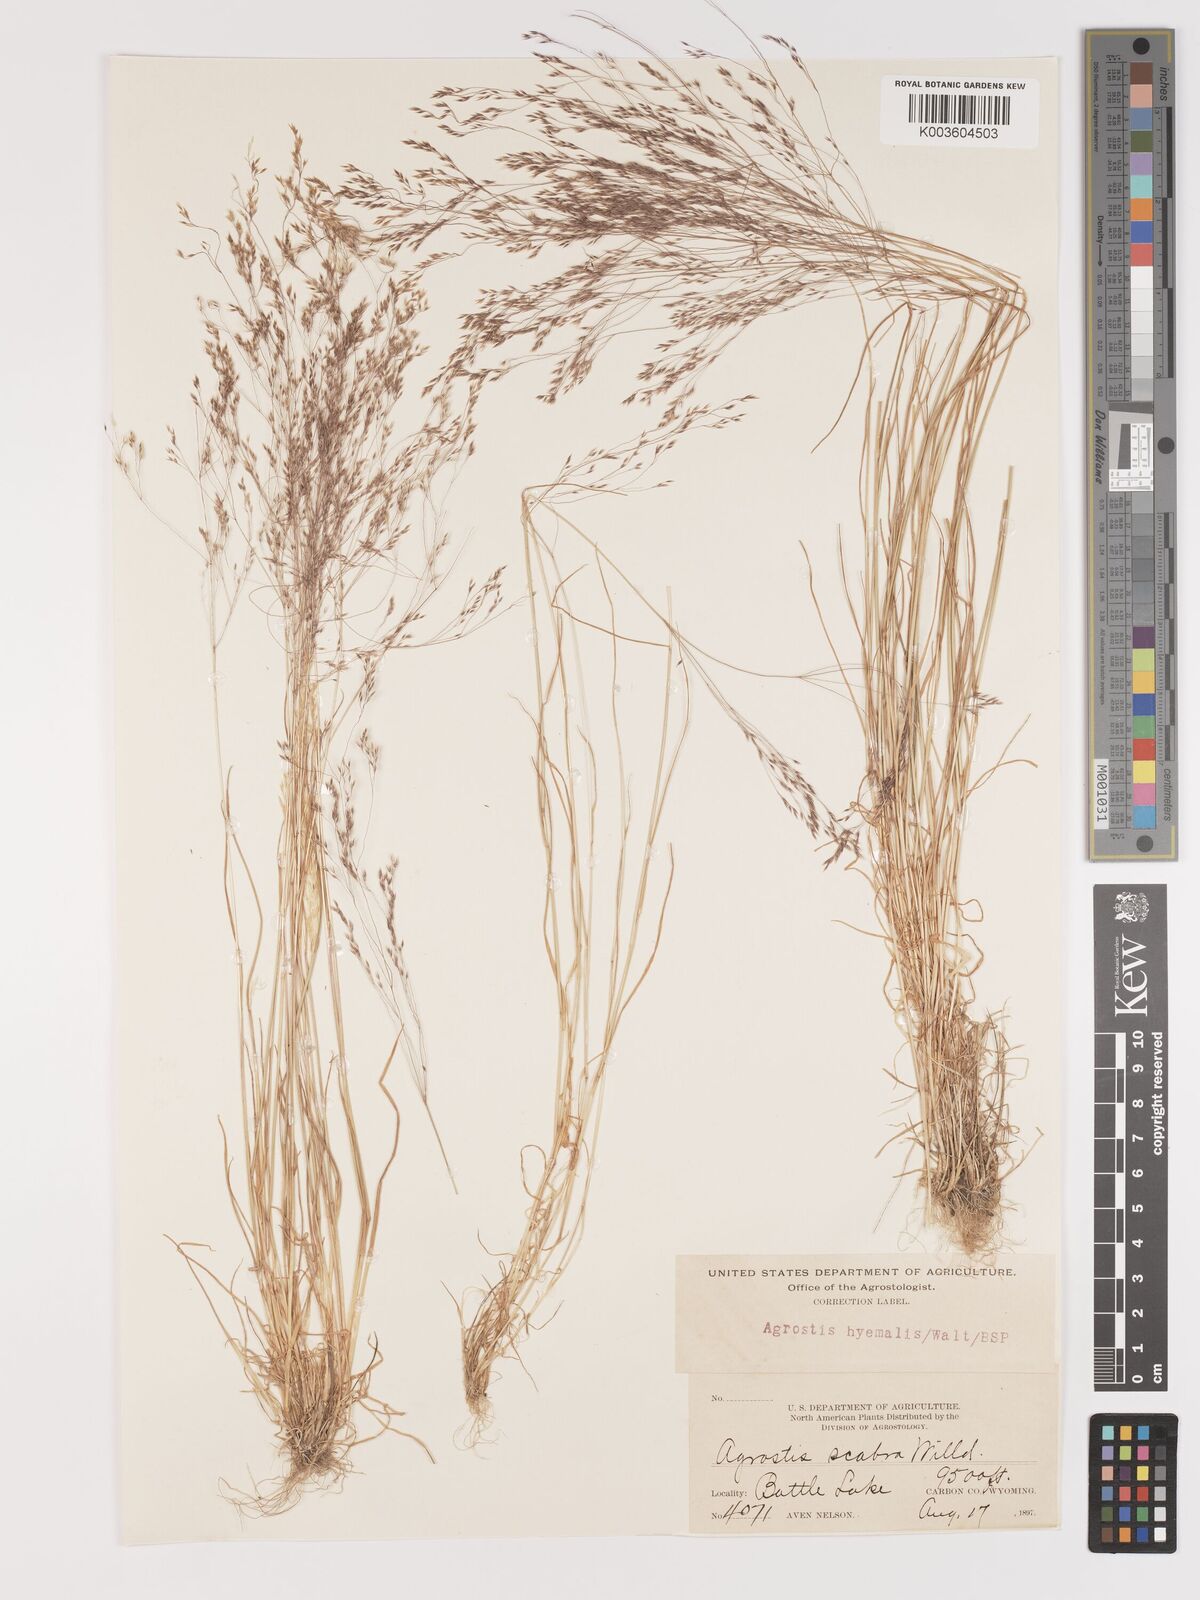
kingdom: Plantae
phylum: Tracheophyta
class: Liliopsida
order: Poales
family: Poaceae
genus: Agrostis
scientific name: Agrostis hyemalis
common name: Small bent
